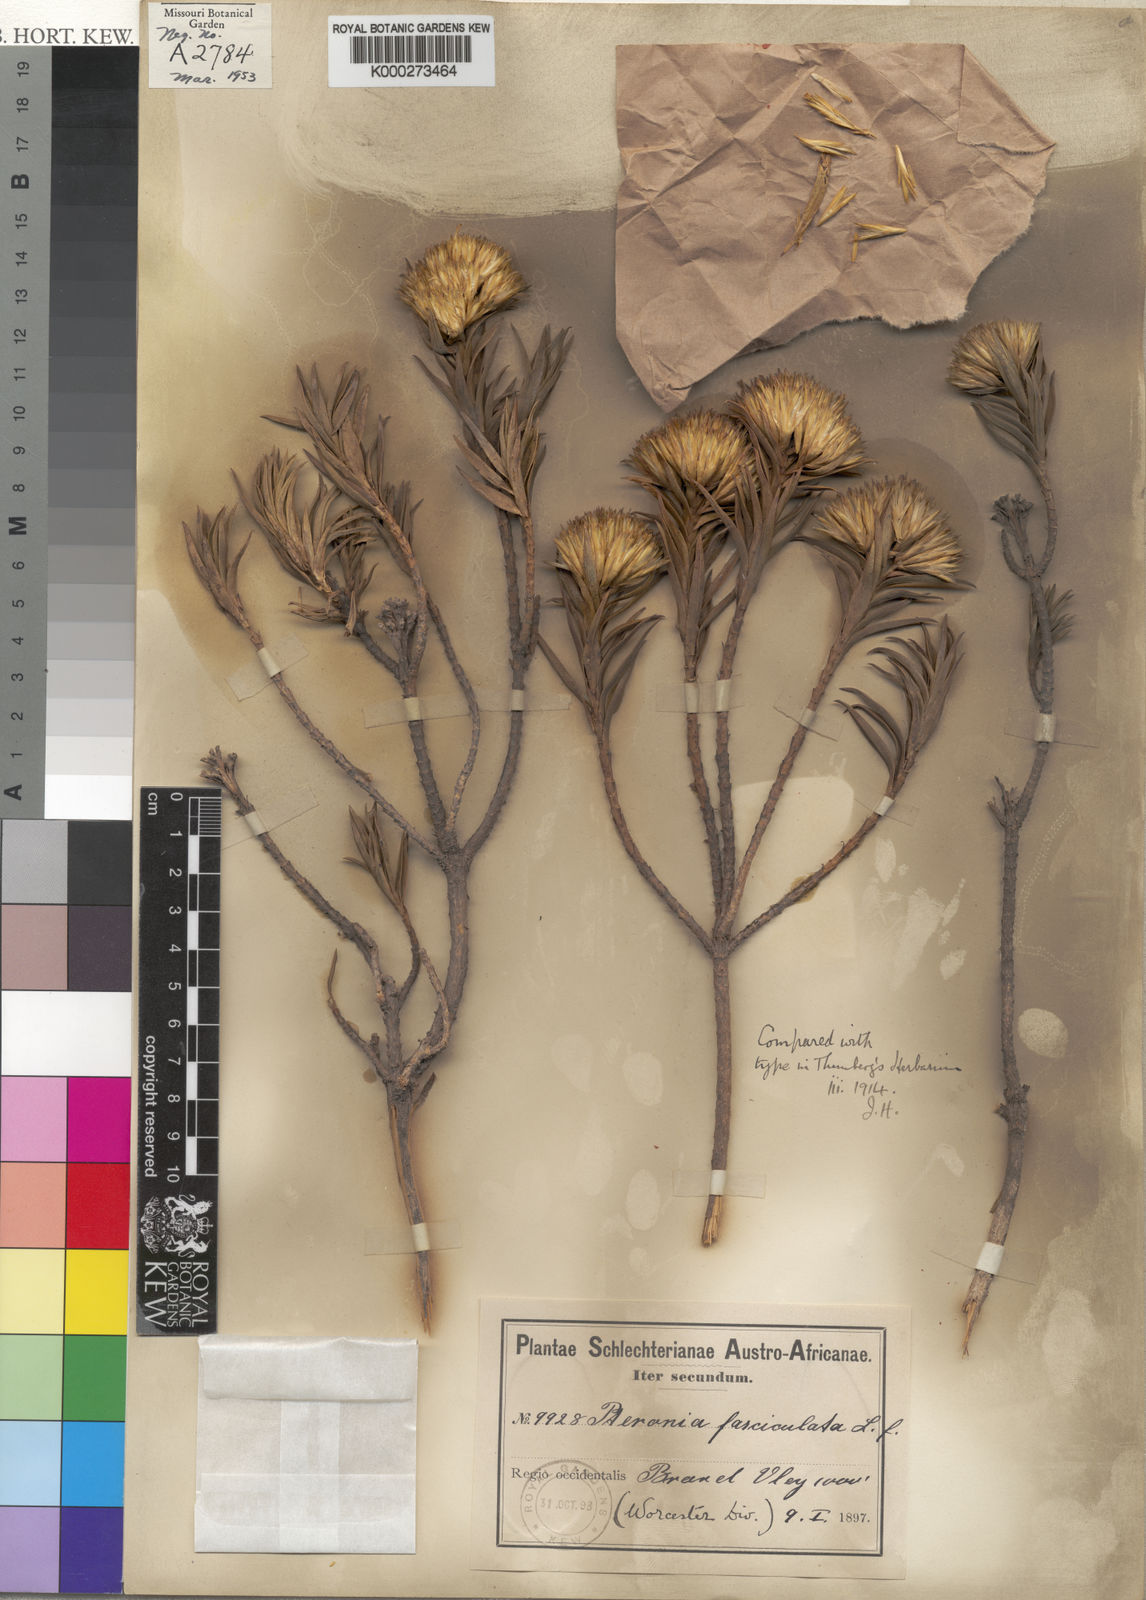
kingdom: Plantae
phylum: Tracheophyta
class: Magnoliopsida
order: Asterales
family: Asteraceae
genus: Pteronia
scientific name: Pteronia fasciculata
